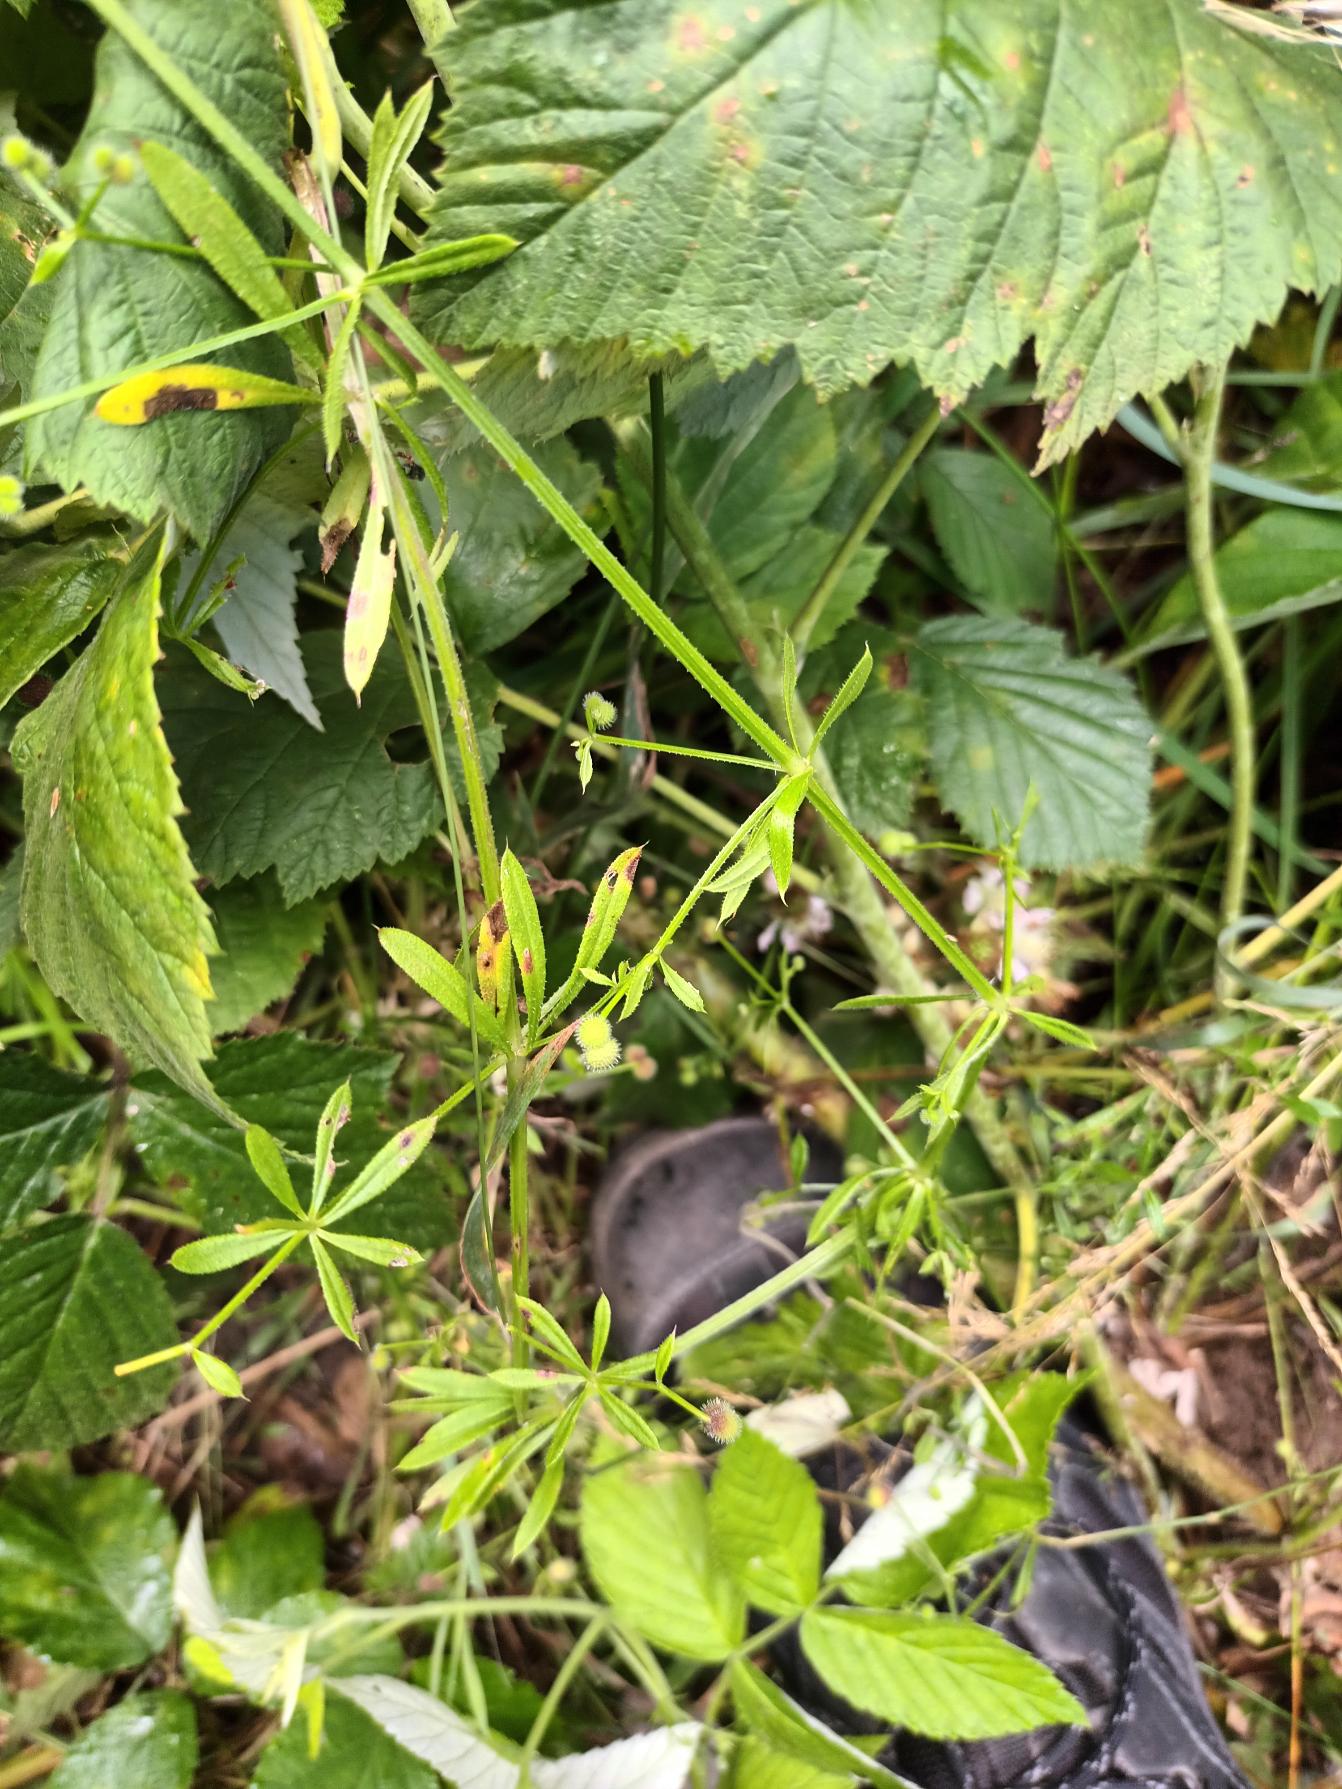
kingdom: Plantae
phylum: Tracheophyta
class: Magnoliopsida
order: Gentianales
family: Rubiaceae
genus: Galium
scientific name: Galium aparine
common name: Burre-snerre
